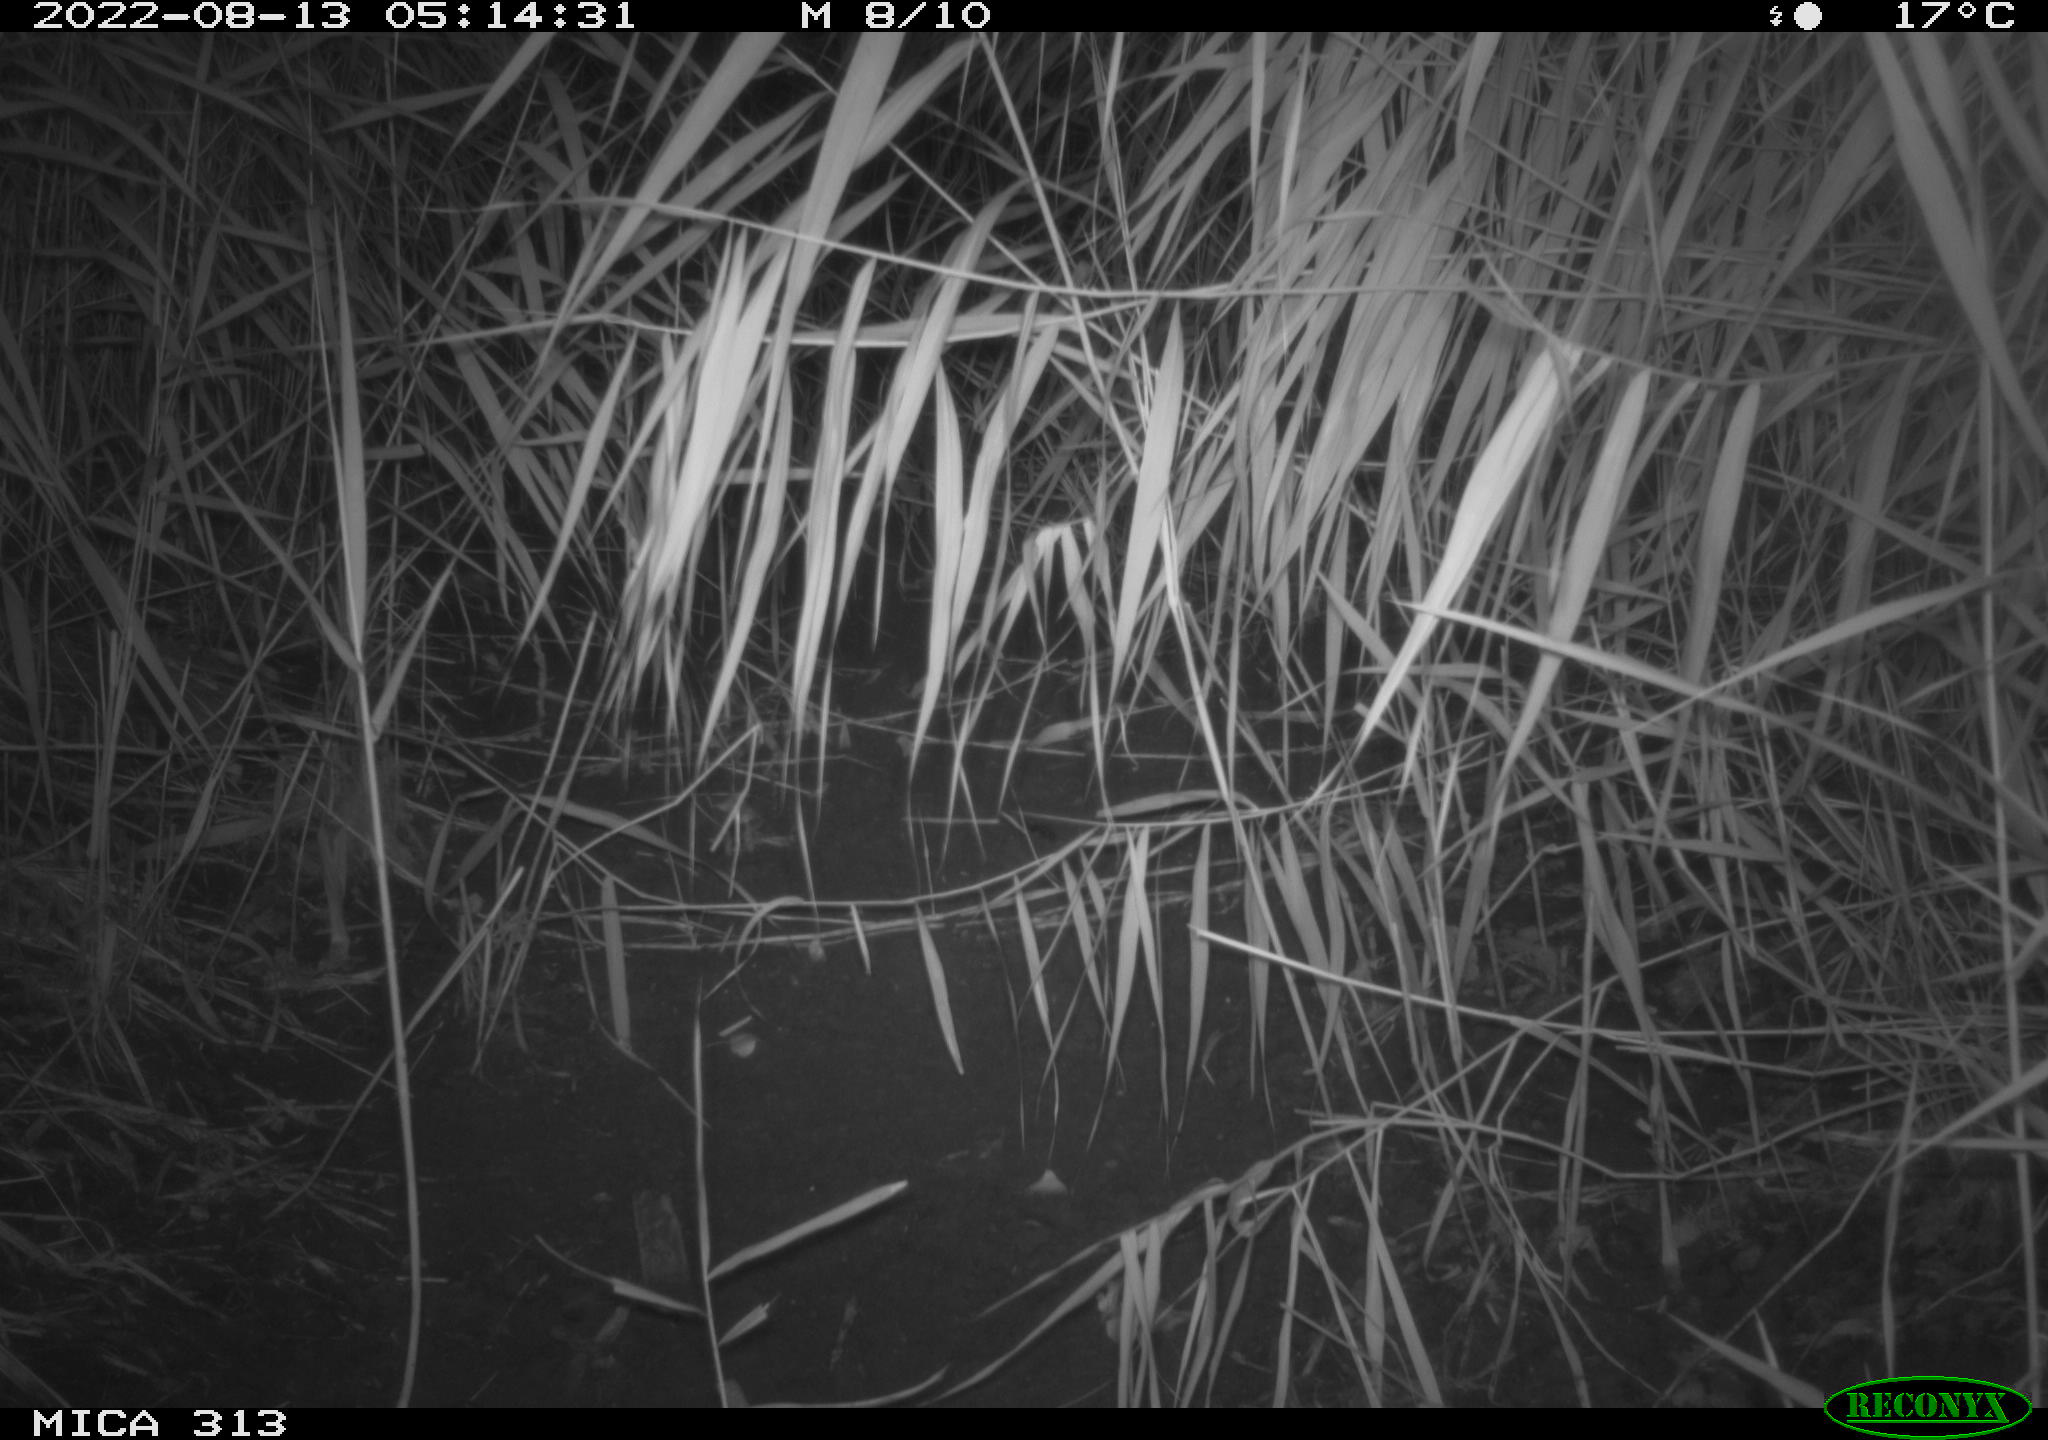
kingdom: Animalia
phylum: Chordata
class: Mammalia
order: Rodentia
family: Muridae
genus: Rattus
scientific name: Rattus norvegicus
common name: Brown rat
